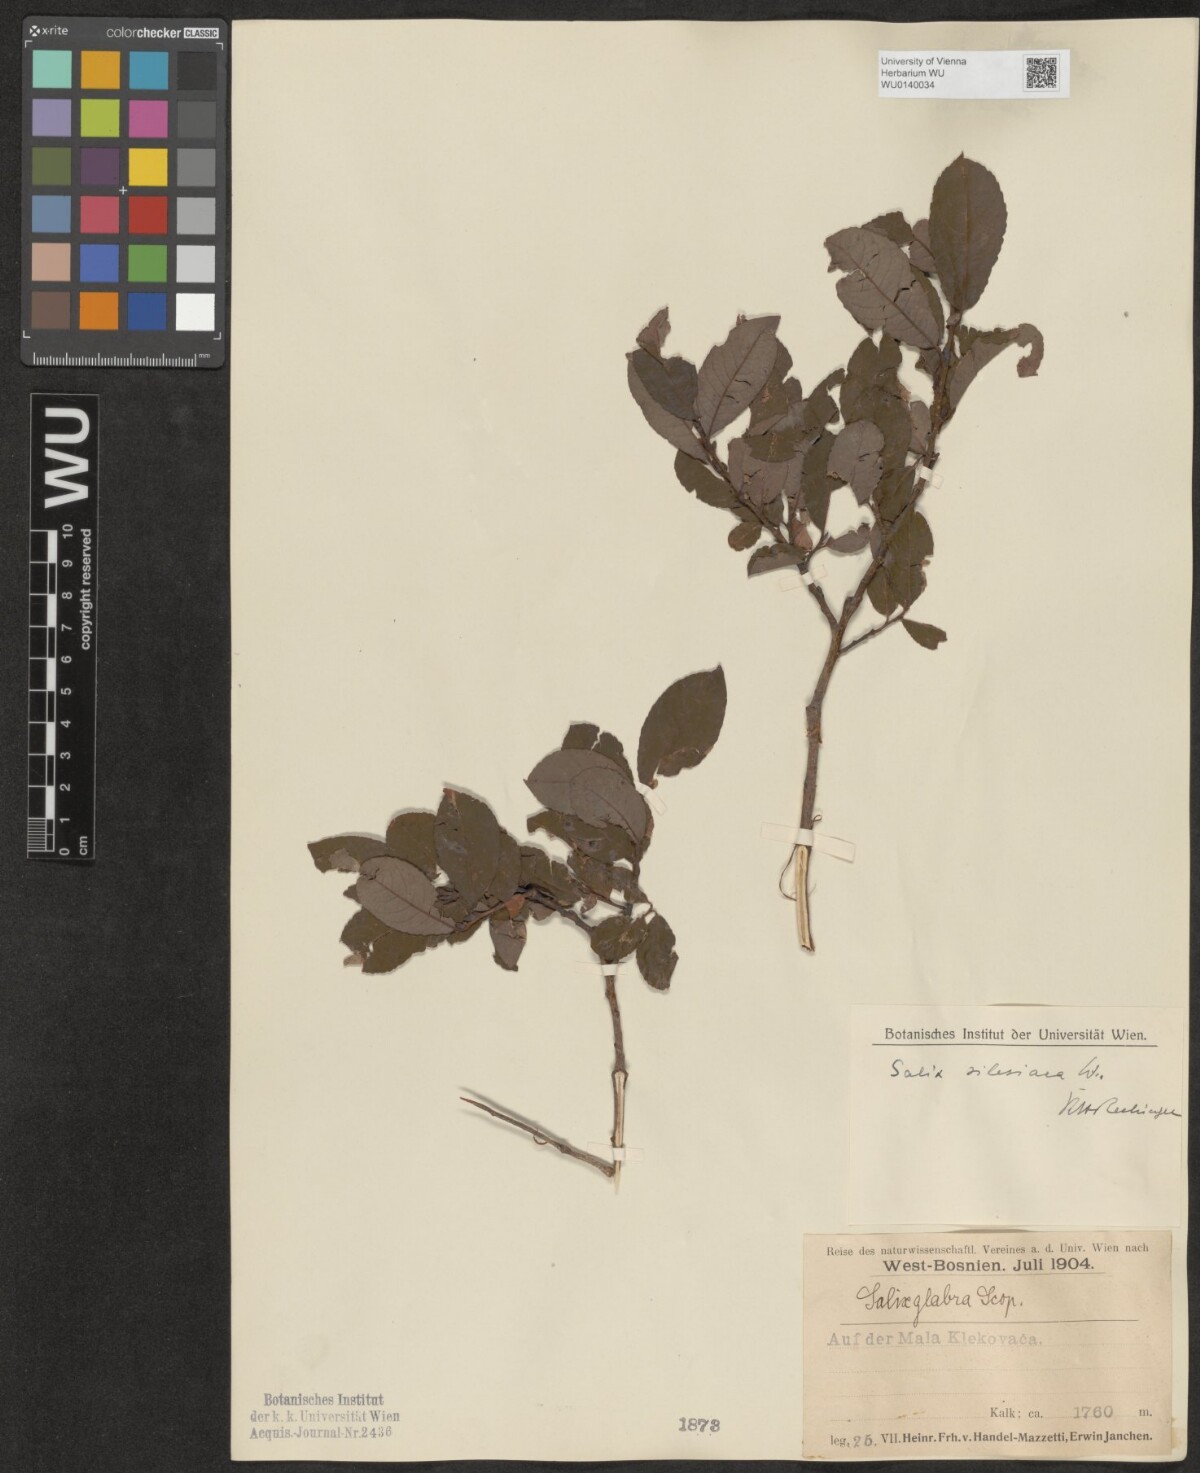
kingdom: Plantae
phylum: Tracheophyta
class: Magnoliopsida
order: Malpighiales
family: Salicaceae
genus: Salix
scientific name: Salix silesiaca
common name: Silesian willow
